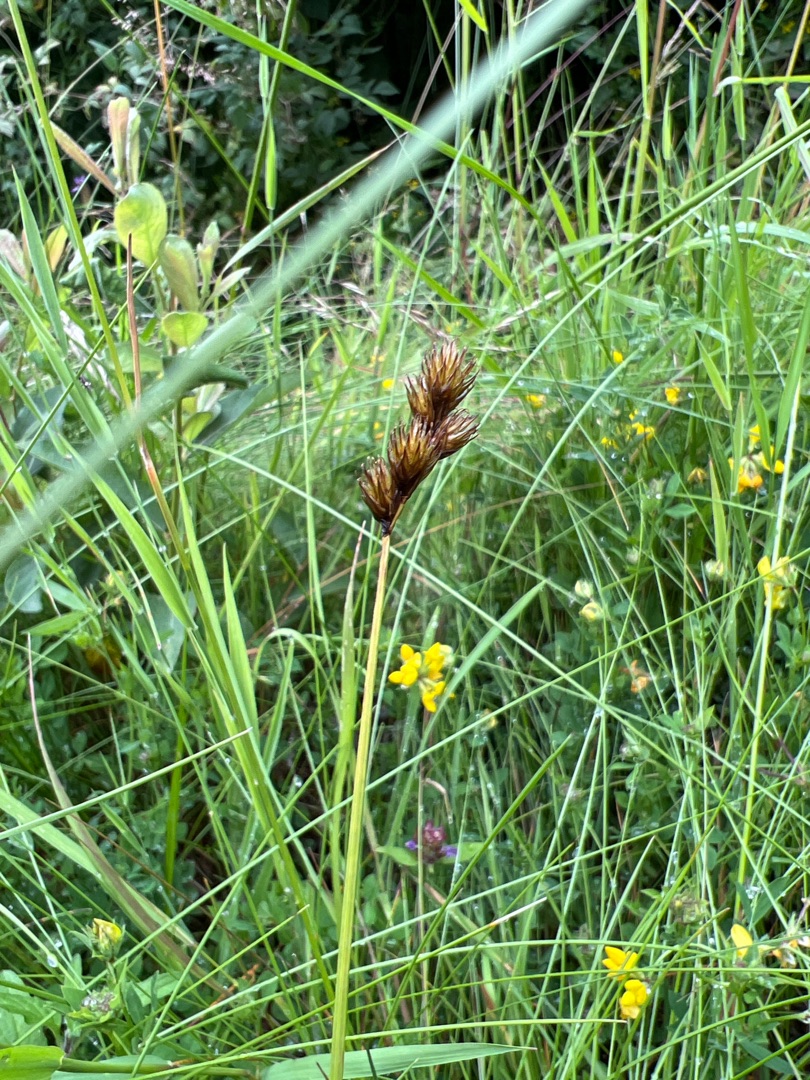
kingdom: Plantae
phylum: Tracheophyta
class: Liliopsida
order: Poales
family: Cyperaceae
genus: Carex
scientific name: Carex leporina
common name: Hare-star
